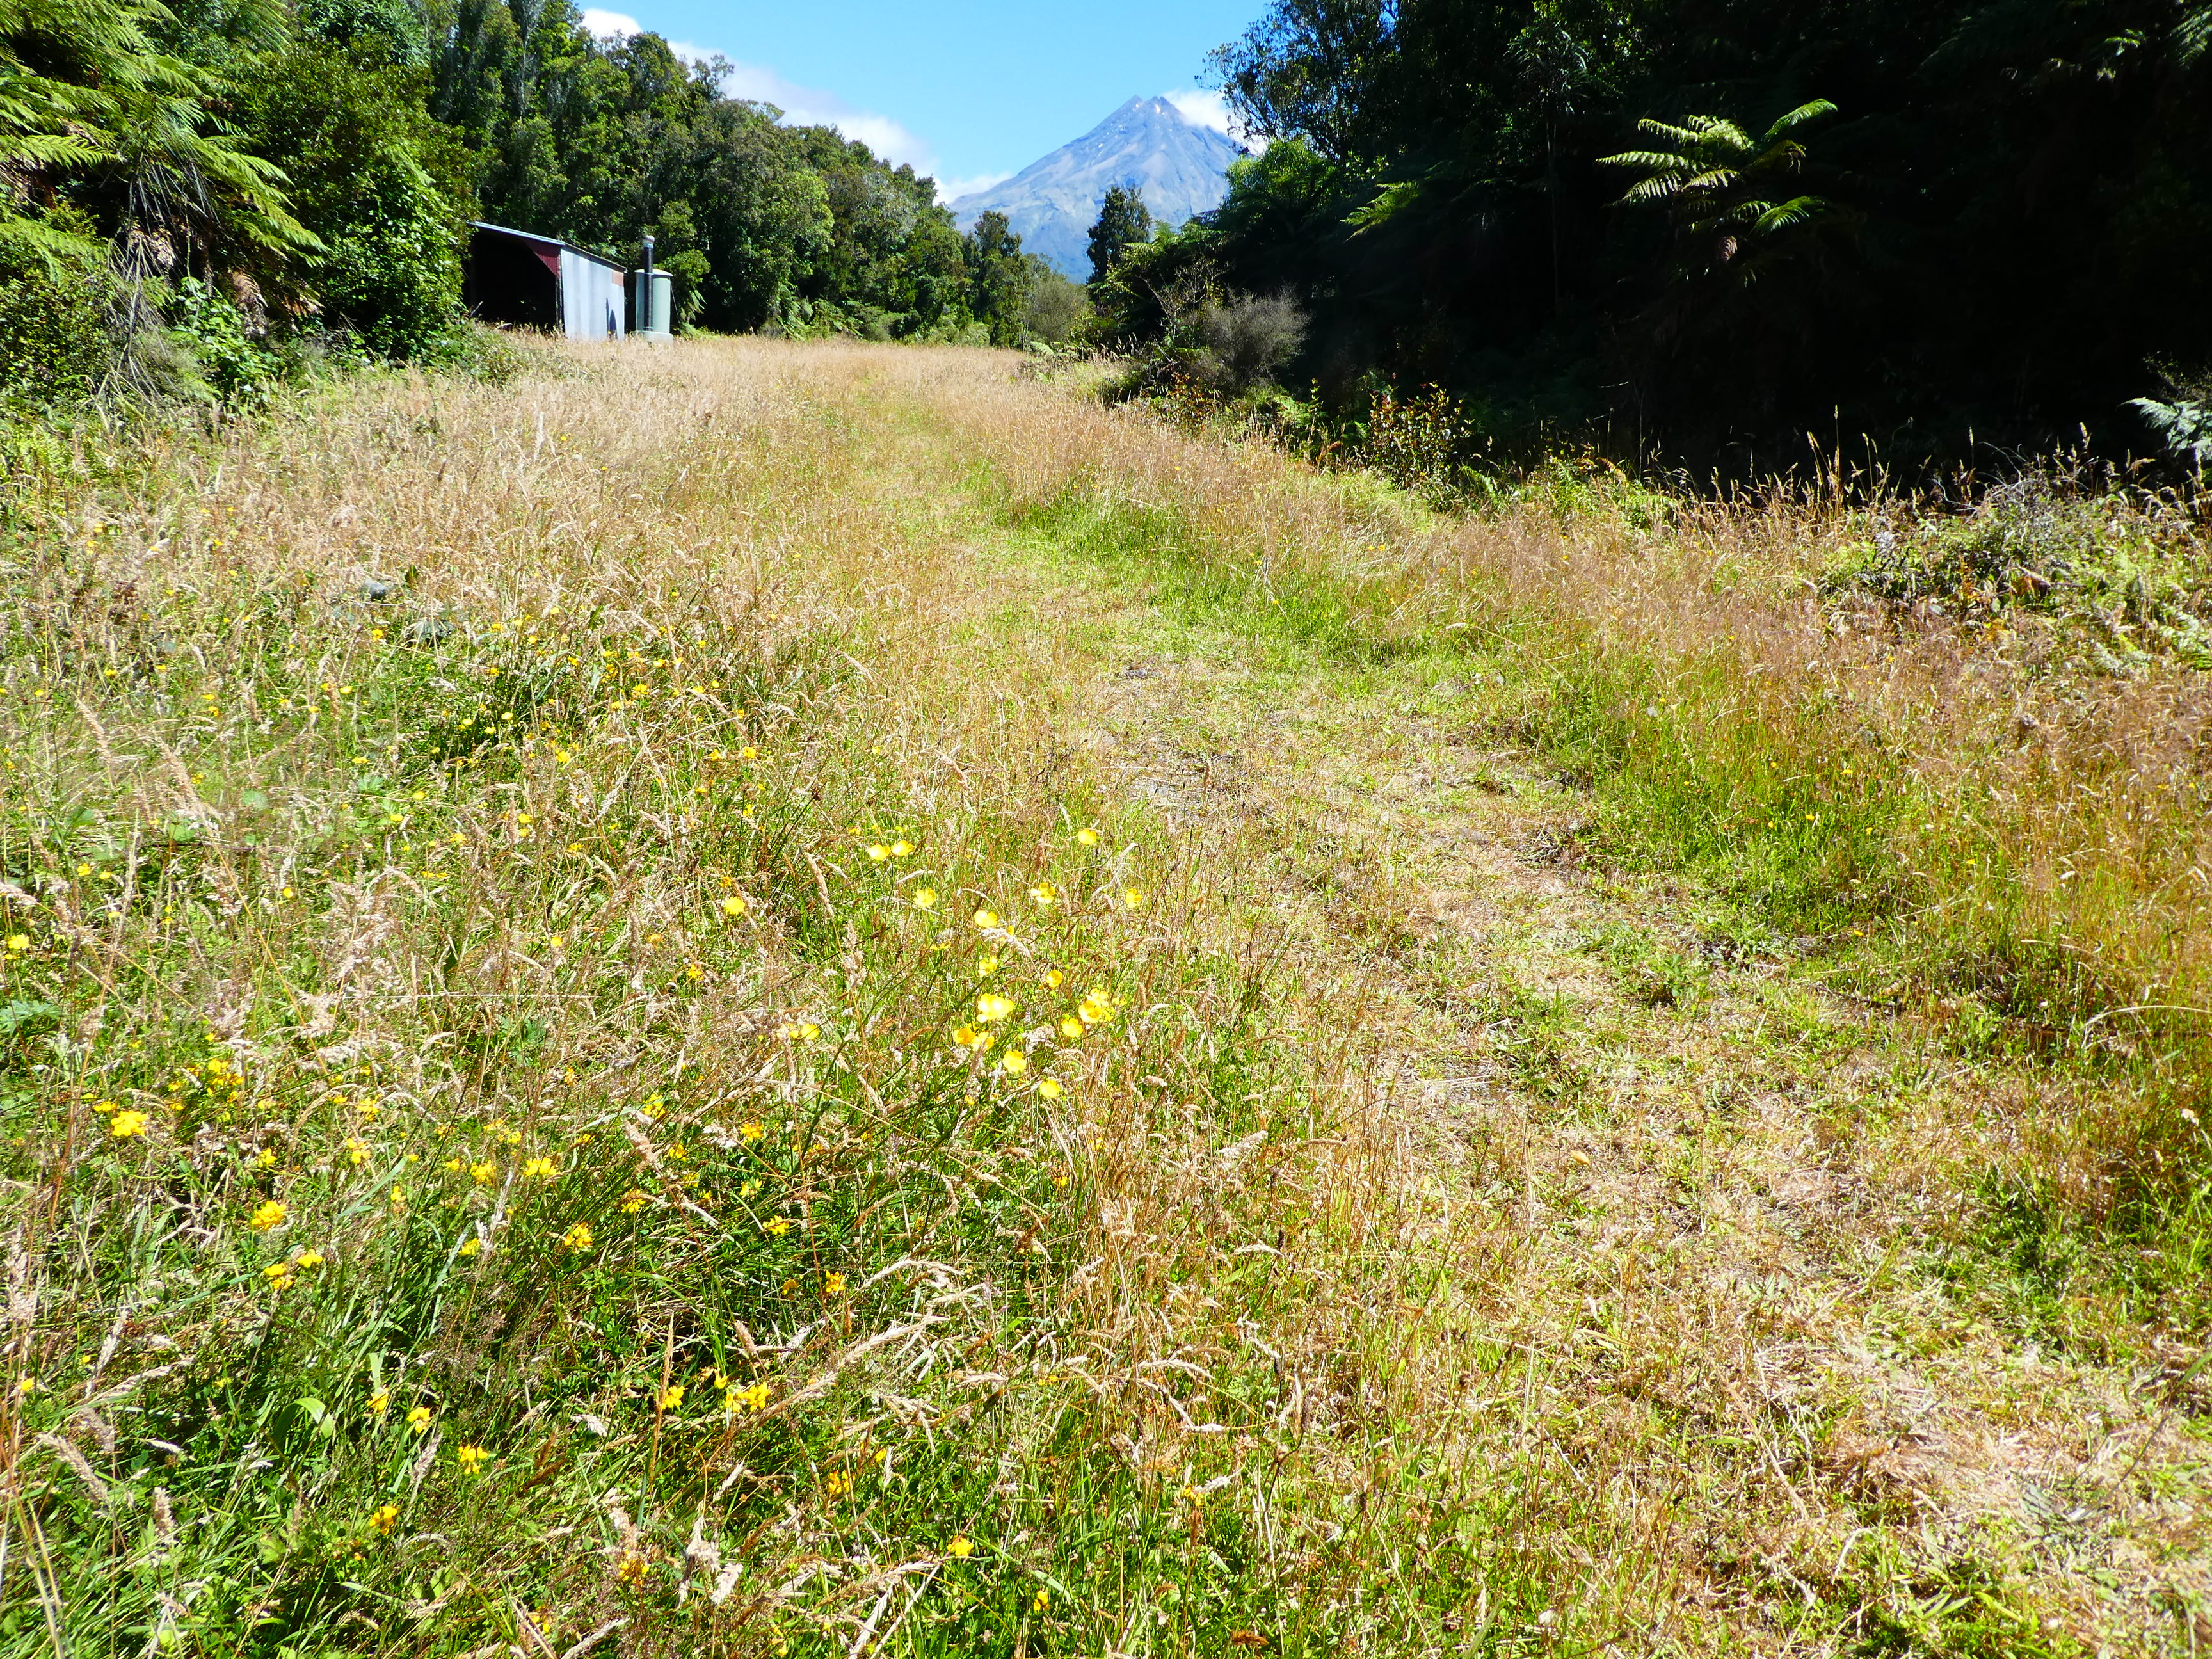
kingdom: Plantae
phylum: Tracheophyta
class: Magnoliopsida
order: Ranunculales
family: Ranunculaceae
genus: Ranunculus
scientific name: Ranunculus acris
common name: Meadow buttercup
